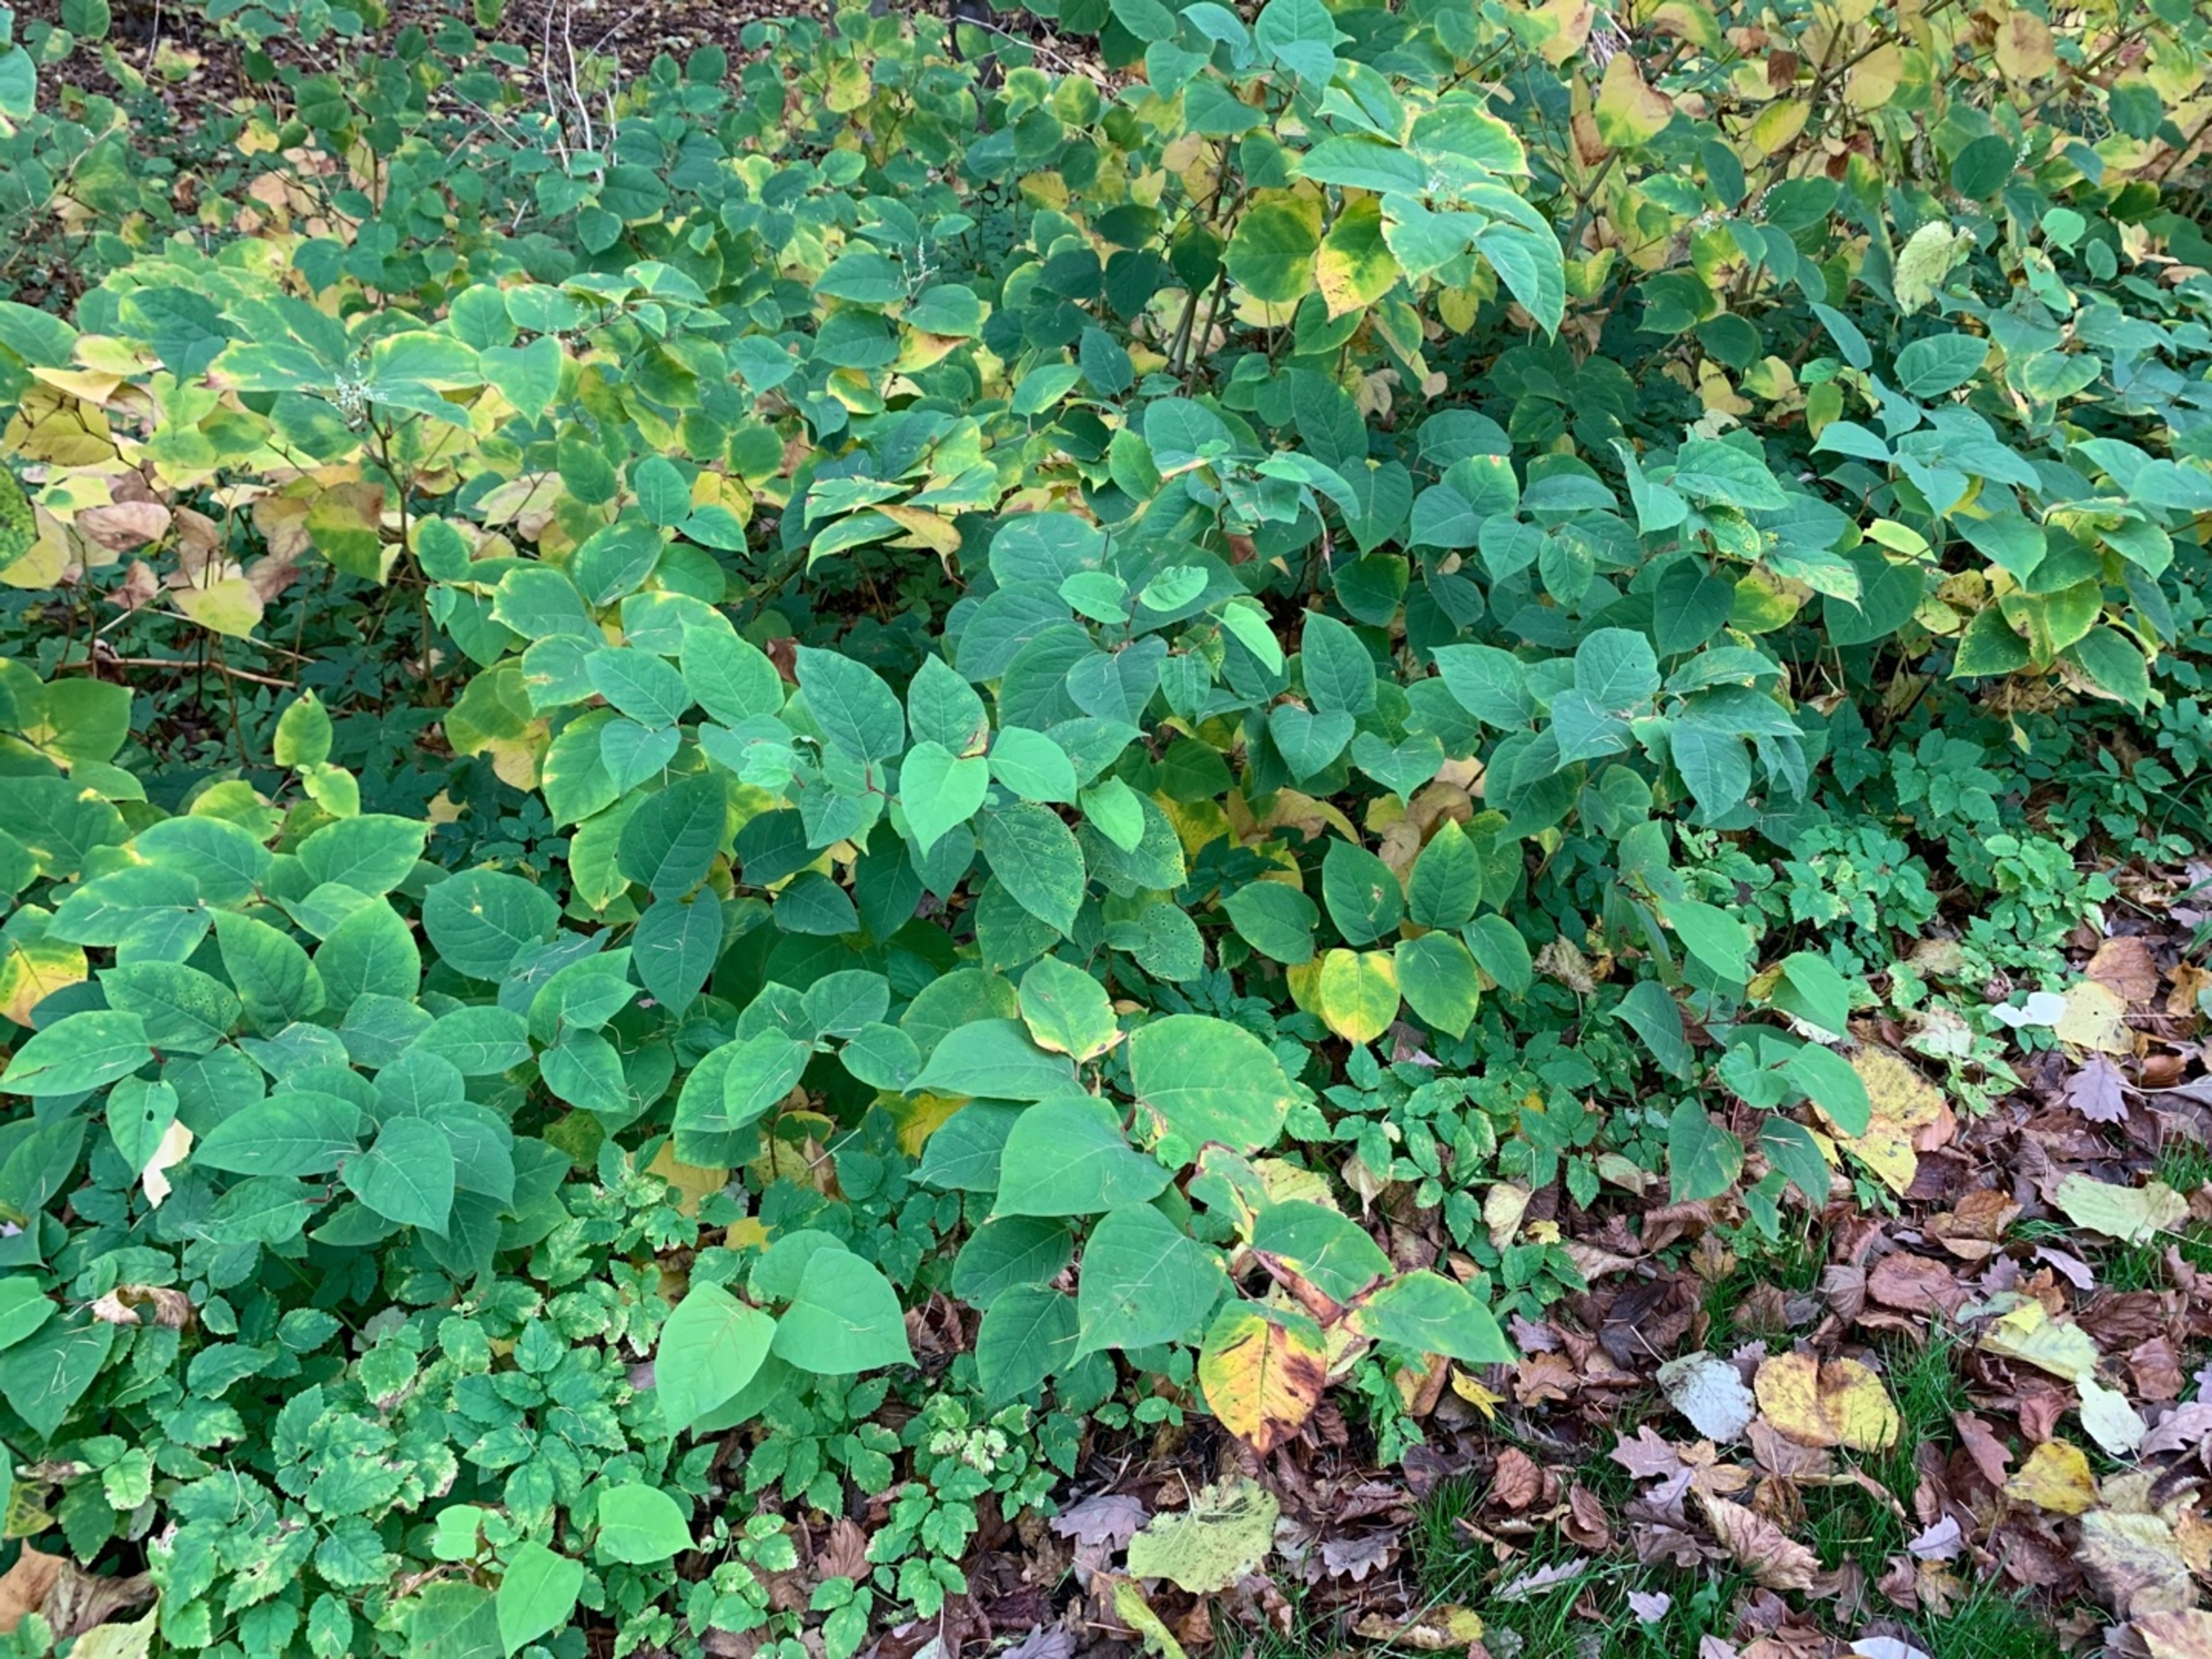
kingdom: Plantae
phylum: Tracheophyta
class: Magnoliopsida
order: Caryophyllales
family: Polygonaceae
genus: Reynoutria
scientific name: Reynoutria japonica
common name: Japan-pileurt
